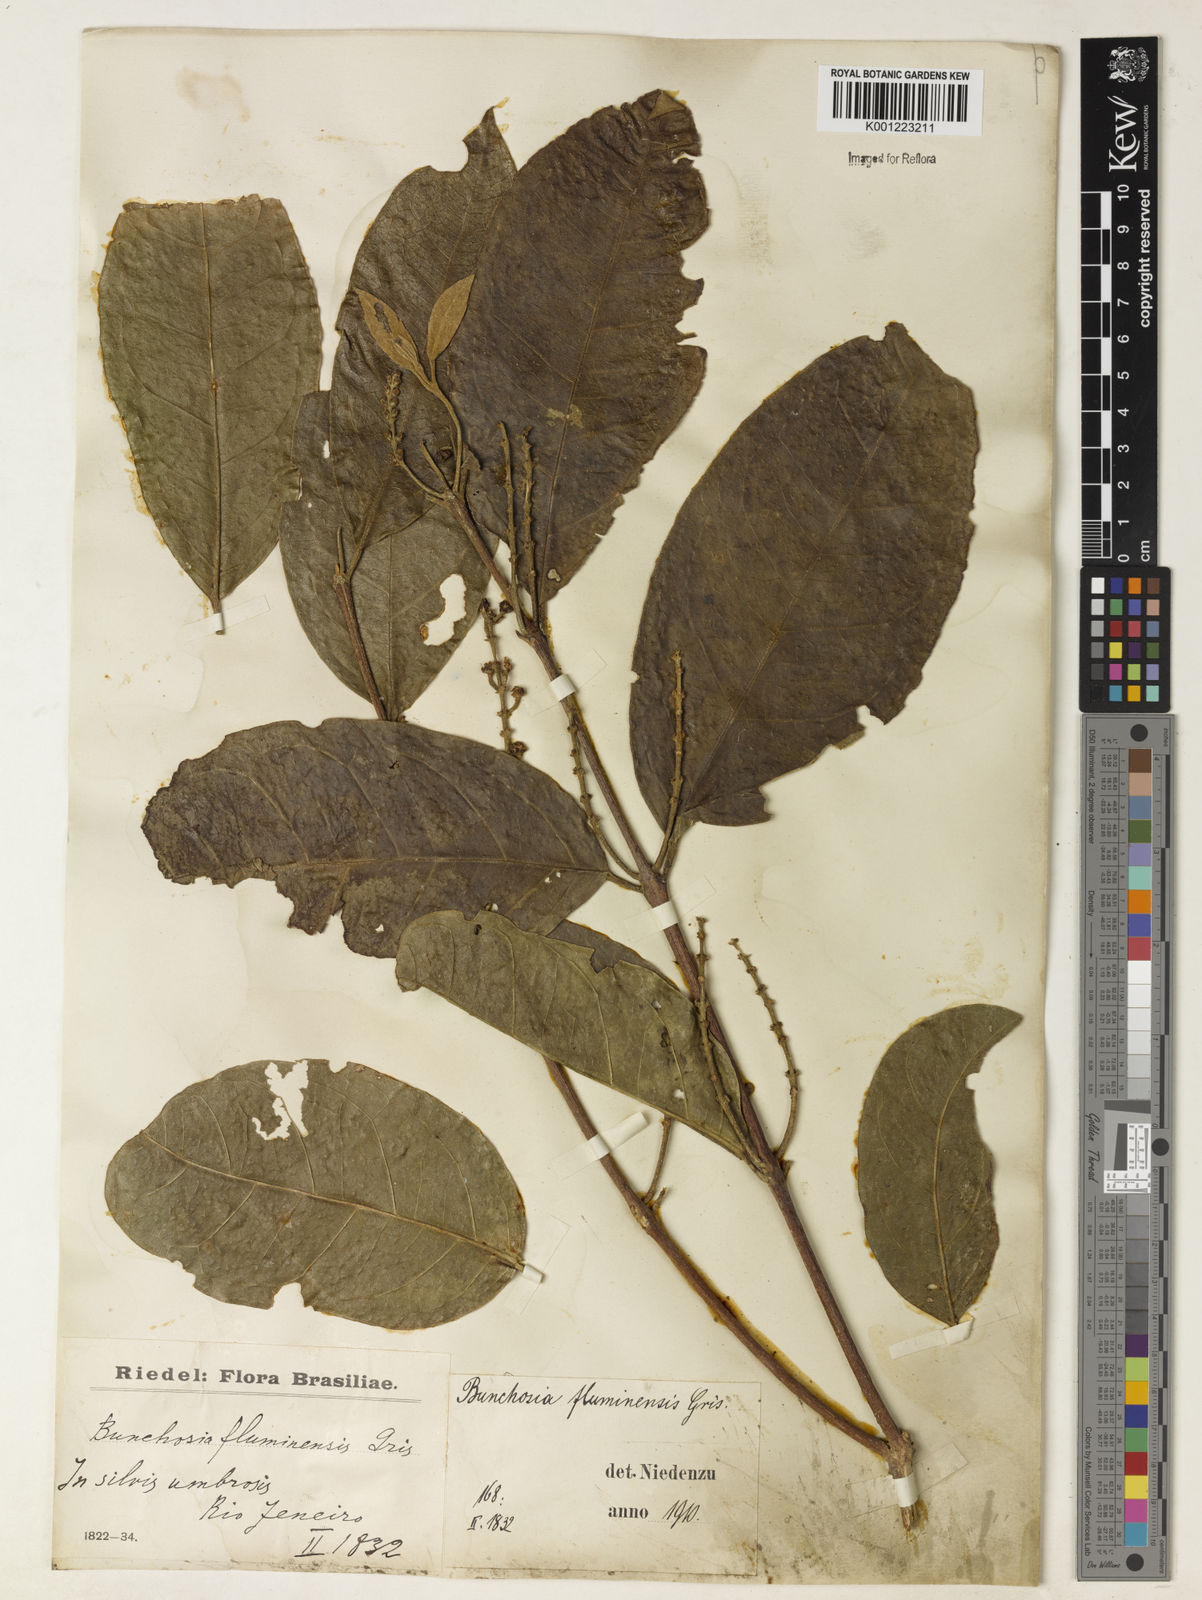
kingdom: Plantae
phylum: Tracheophyta
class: Magnoliopsida
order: Malpighiales
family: Malpighiaceae
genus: Bunchosia
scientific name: Bunchosia fluminensis
